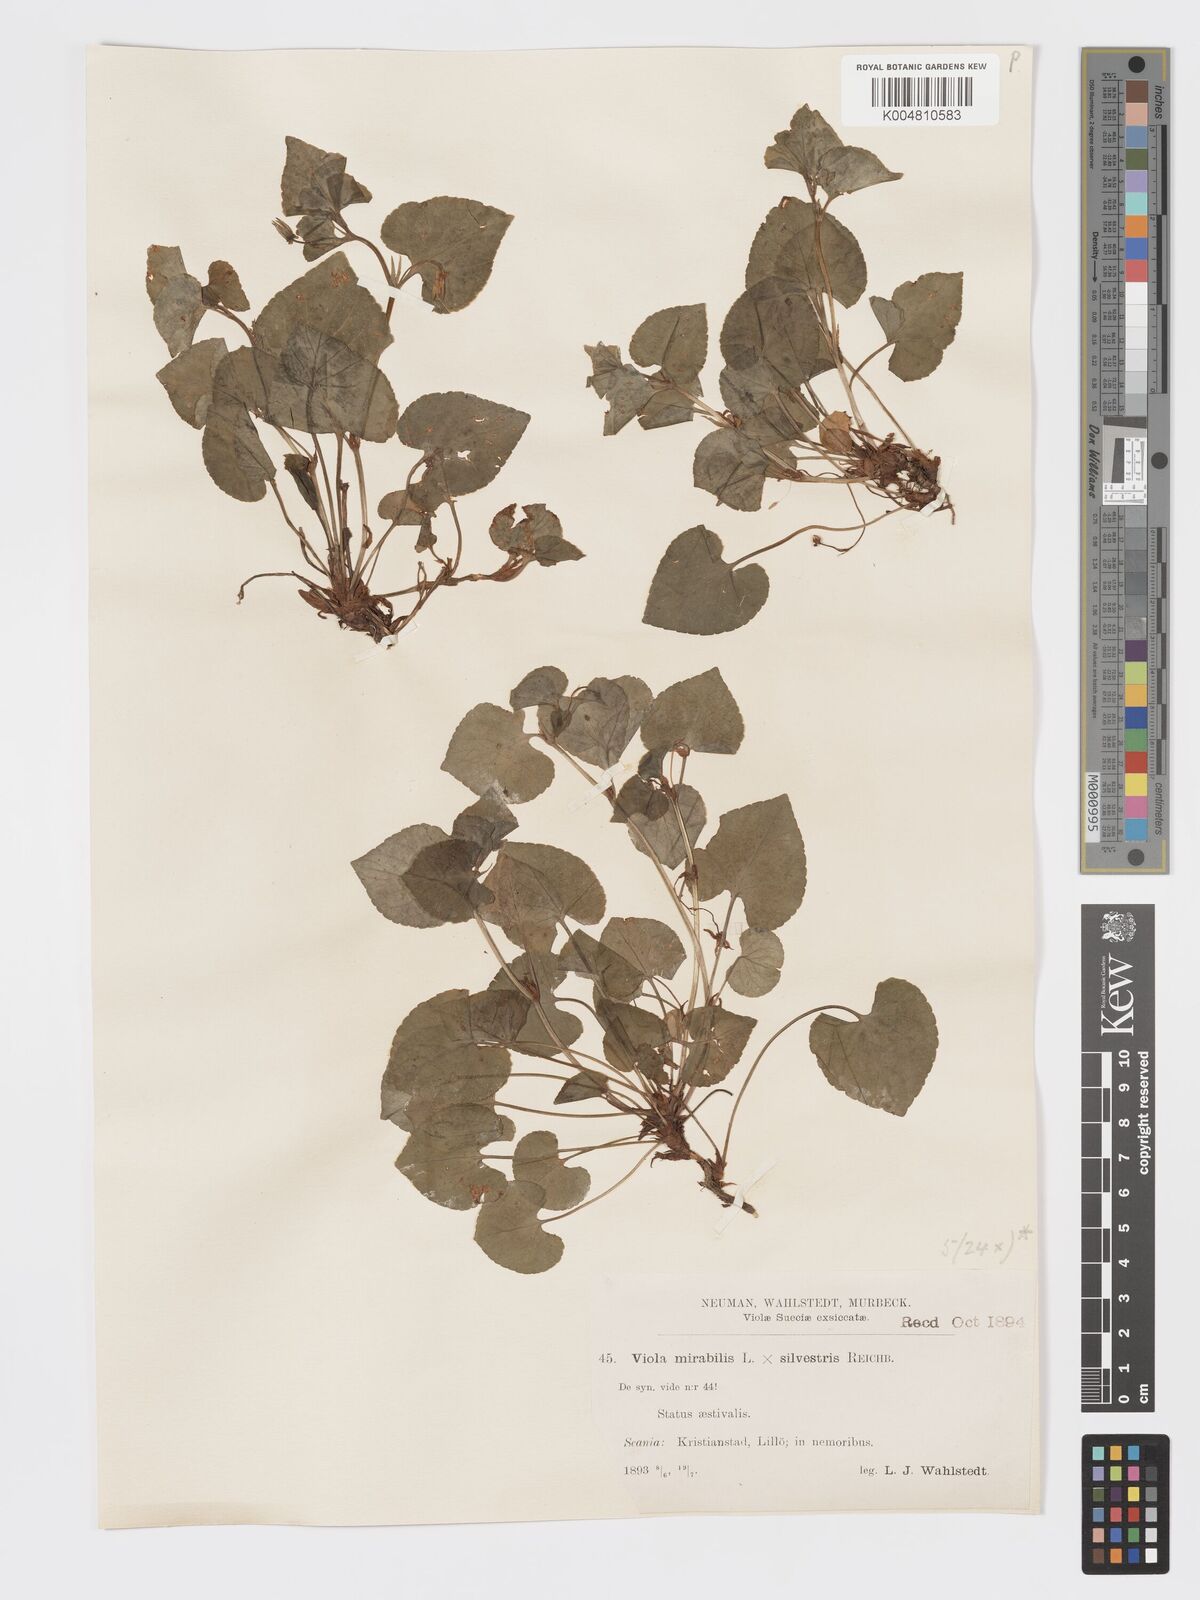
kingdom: Plantae
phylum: Tracheophyta
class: Magnoliopsida
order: Malpighiales
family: Violaceae
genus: Viola
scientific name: Viola mirabilis
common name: Wonder violet
